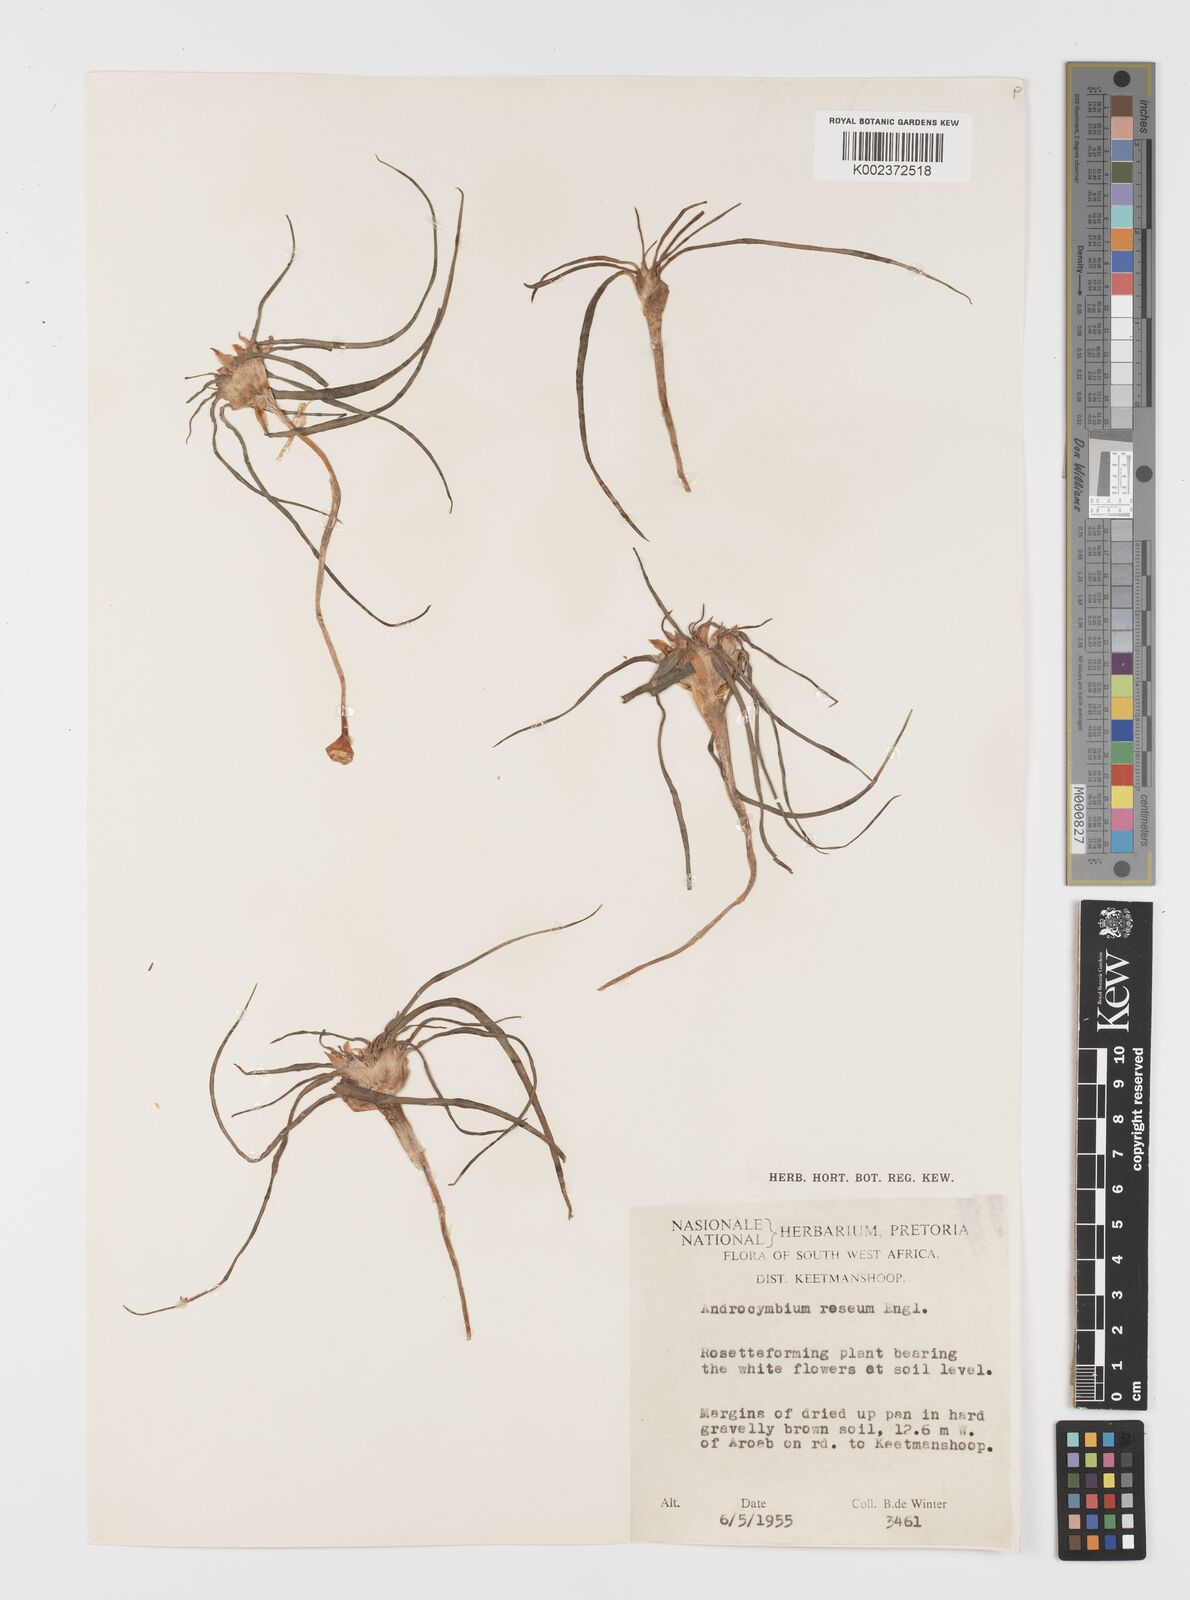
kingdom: Plantae
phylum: Tracheophyta
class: Liliopsida
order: Liliales
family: Colchicaceae
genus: Colchicum
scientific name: Colchicum roseum
